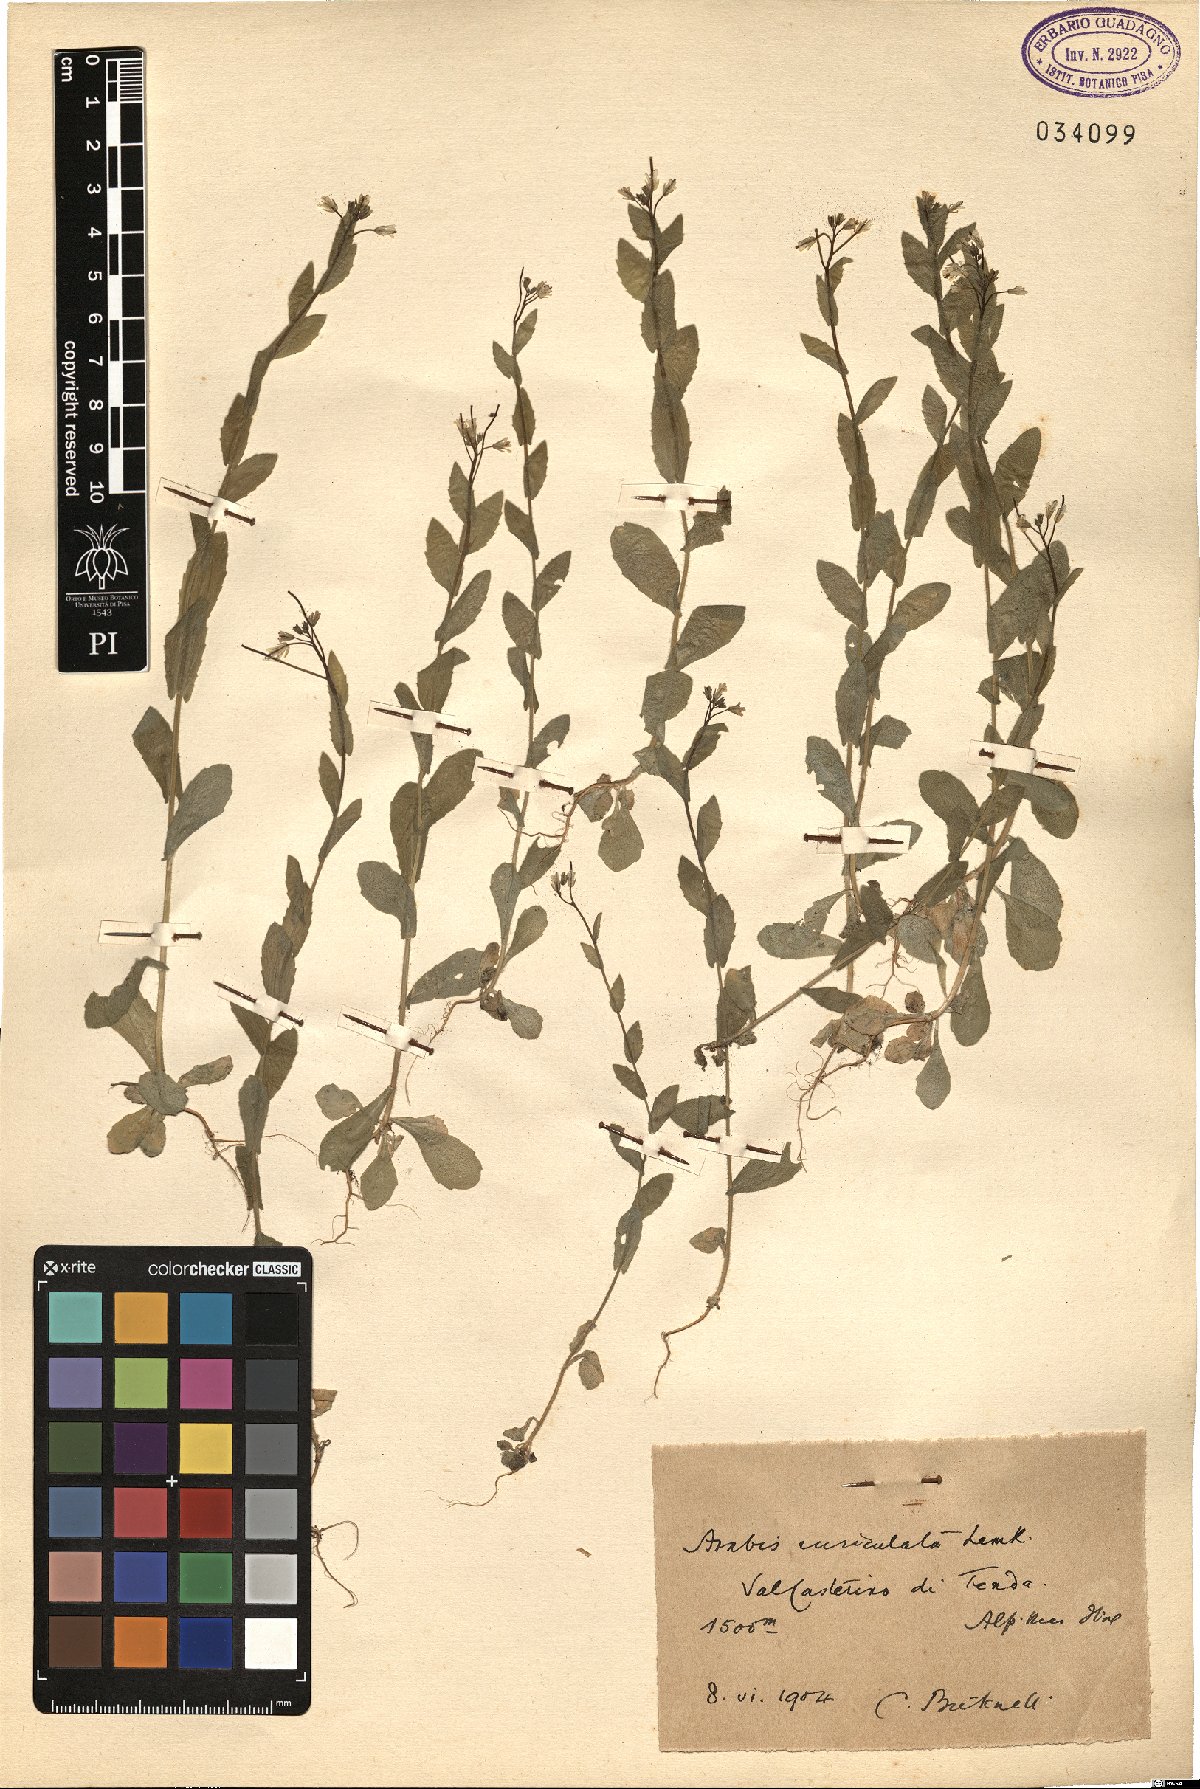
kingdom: Plantae
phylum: Tracheophyta
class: Magnoliopsida
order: Brassicales
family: Brassicaceae
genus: Arabis
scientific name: Arabis auriculata
